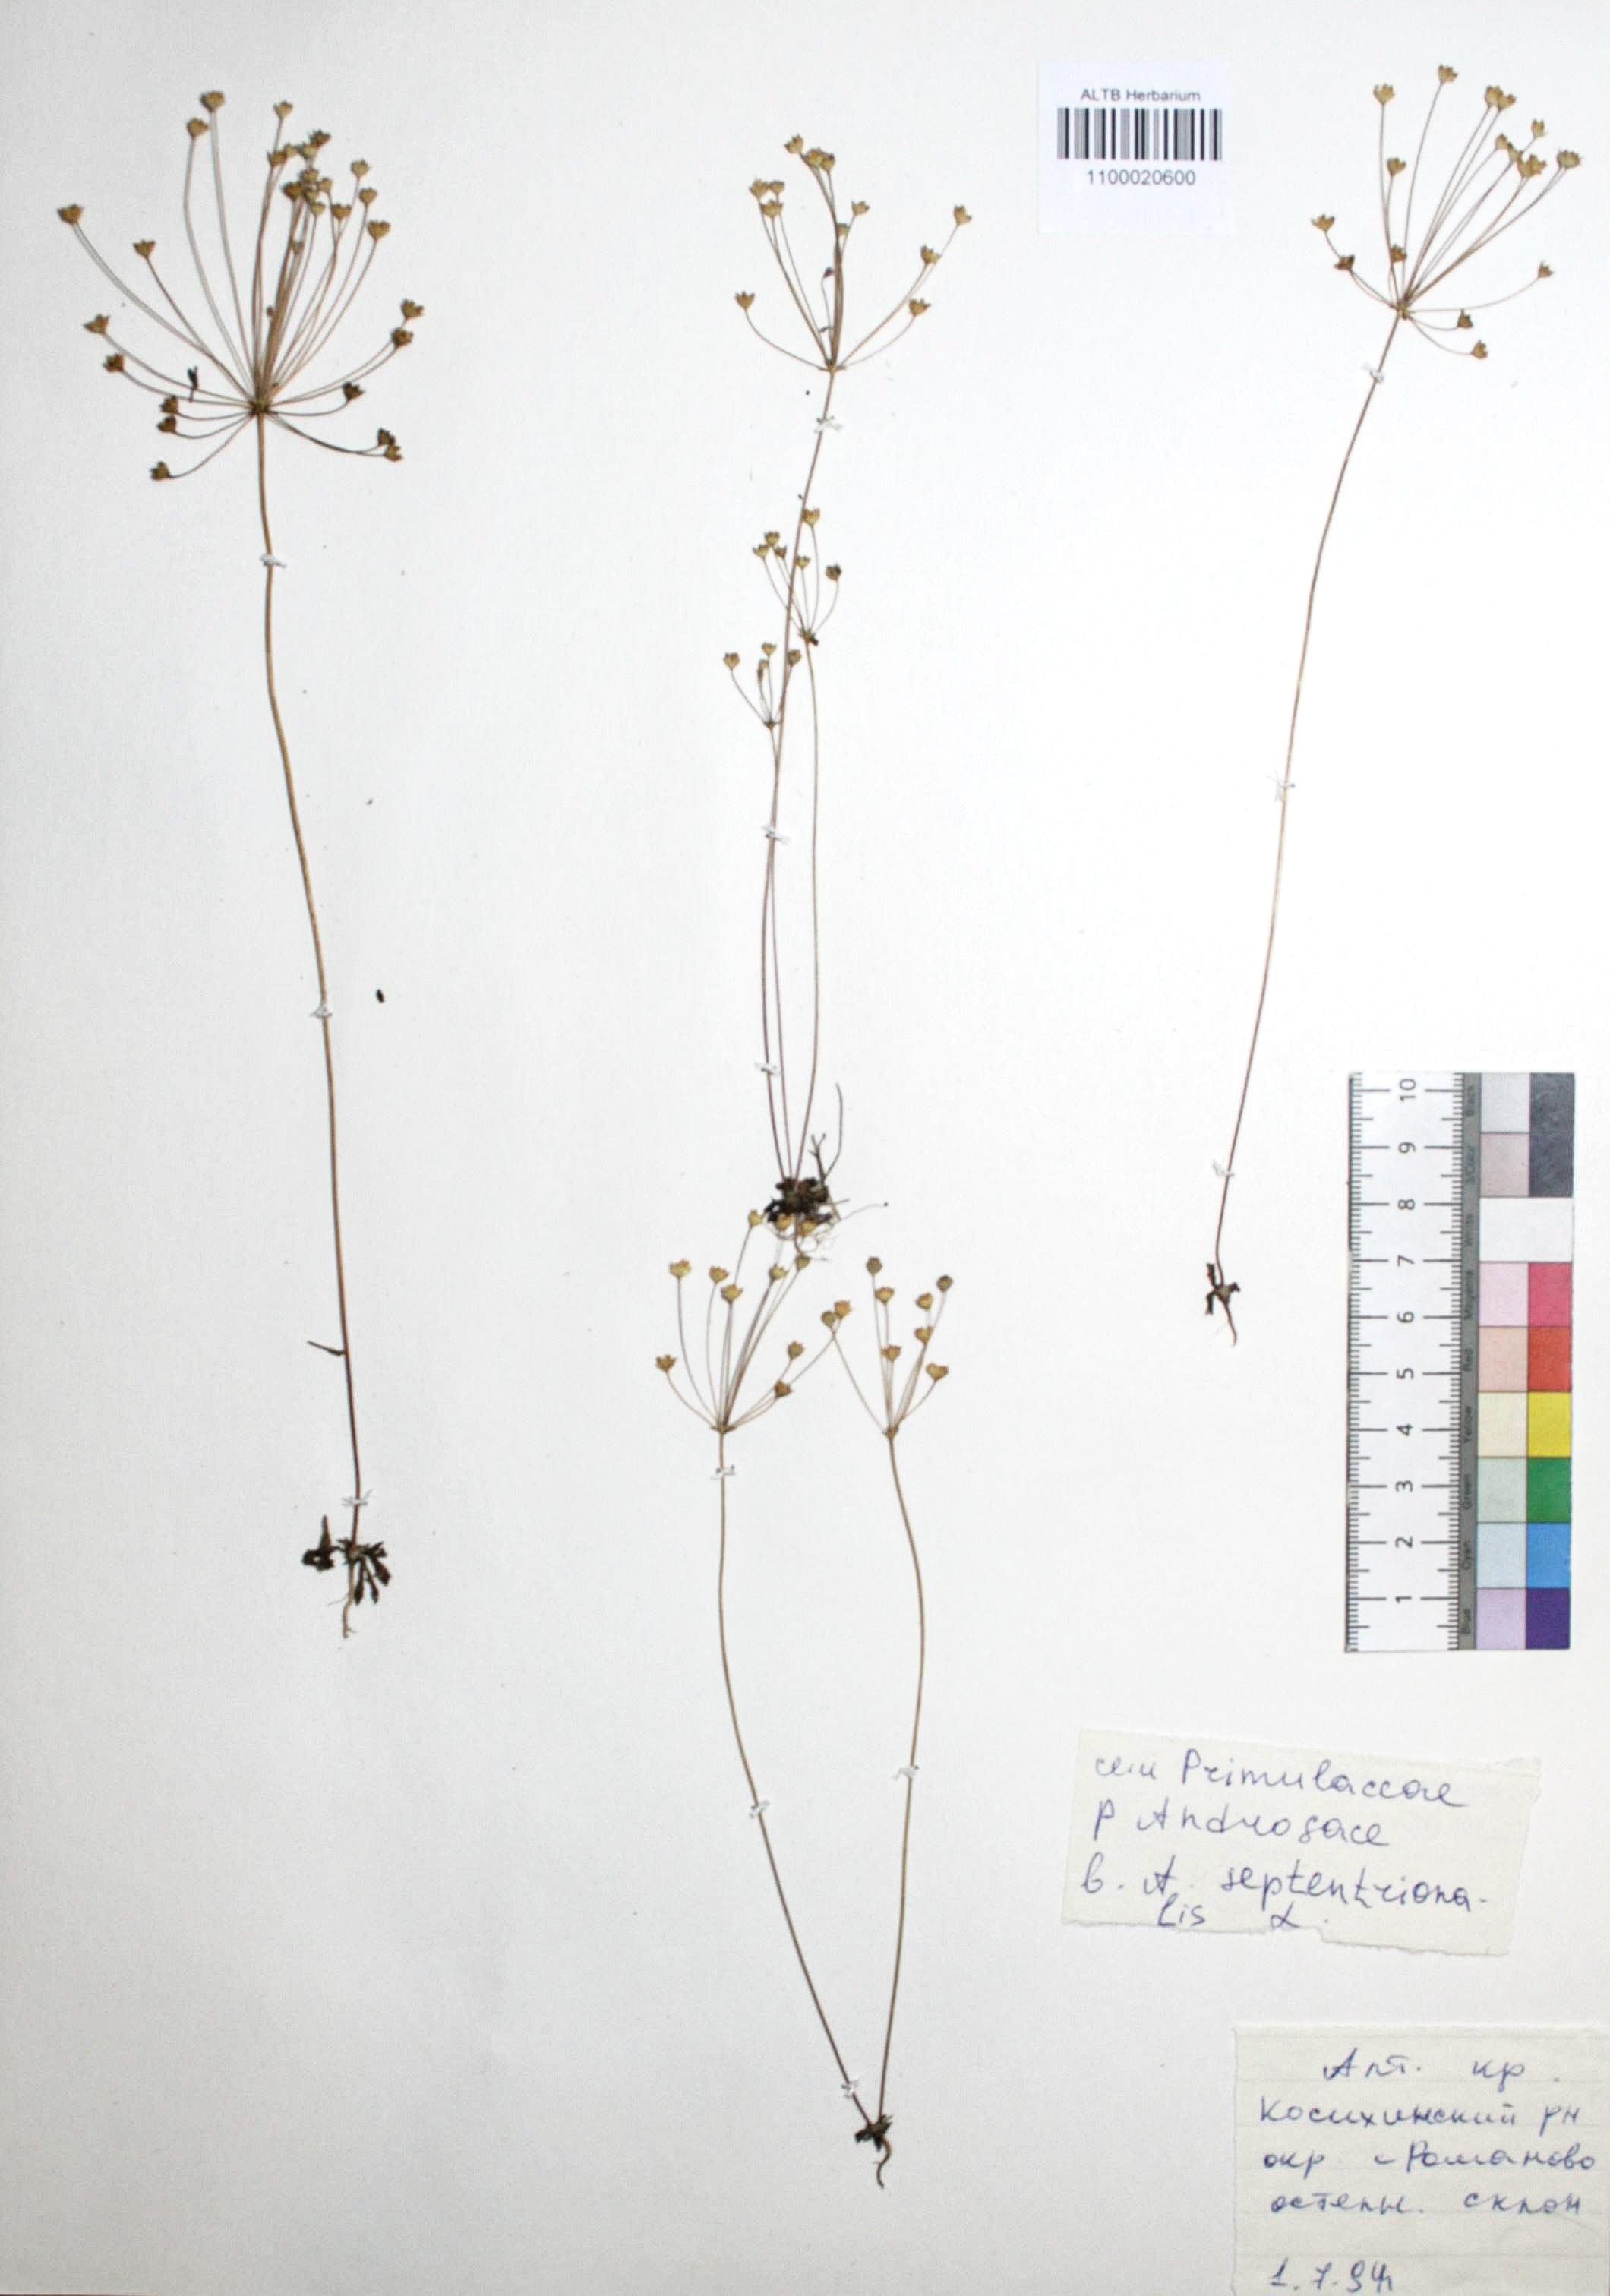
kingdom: Plantae
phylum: Tracheophyta
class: Magnoliopsida
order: Ericales
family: Primulaceae
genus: Androsace
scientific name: Androsace septentrionalis
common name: Hairy northern fairy-candelabra
